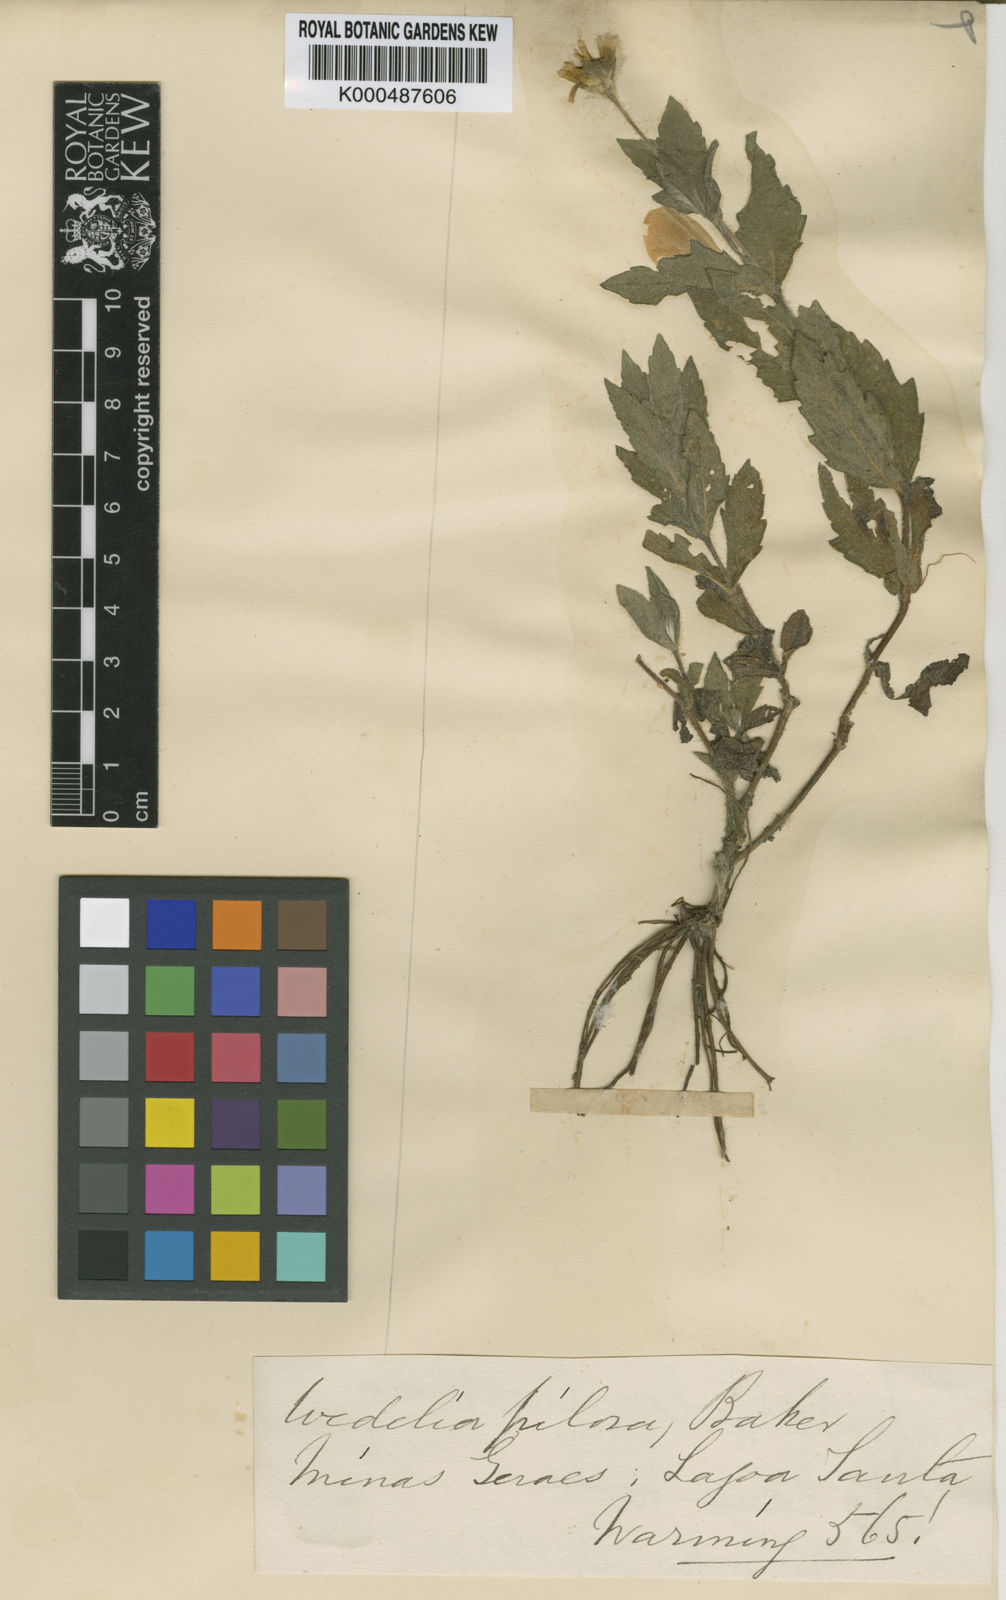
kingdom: Plantae
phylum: Tracheophyta
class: Magnoliopsida
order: Asterales
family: Asteraceae
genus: Sphagneticola
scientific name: Sphagneticola brachycarpa
